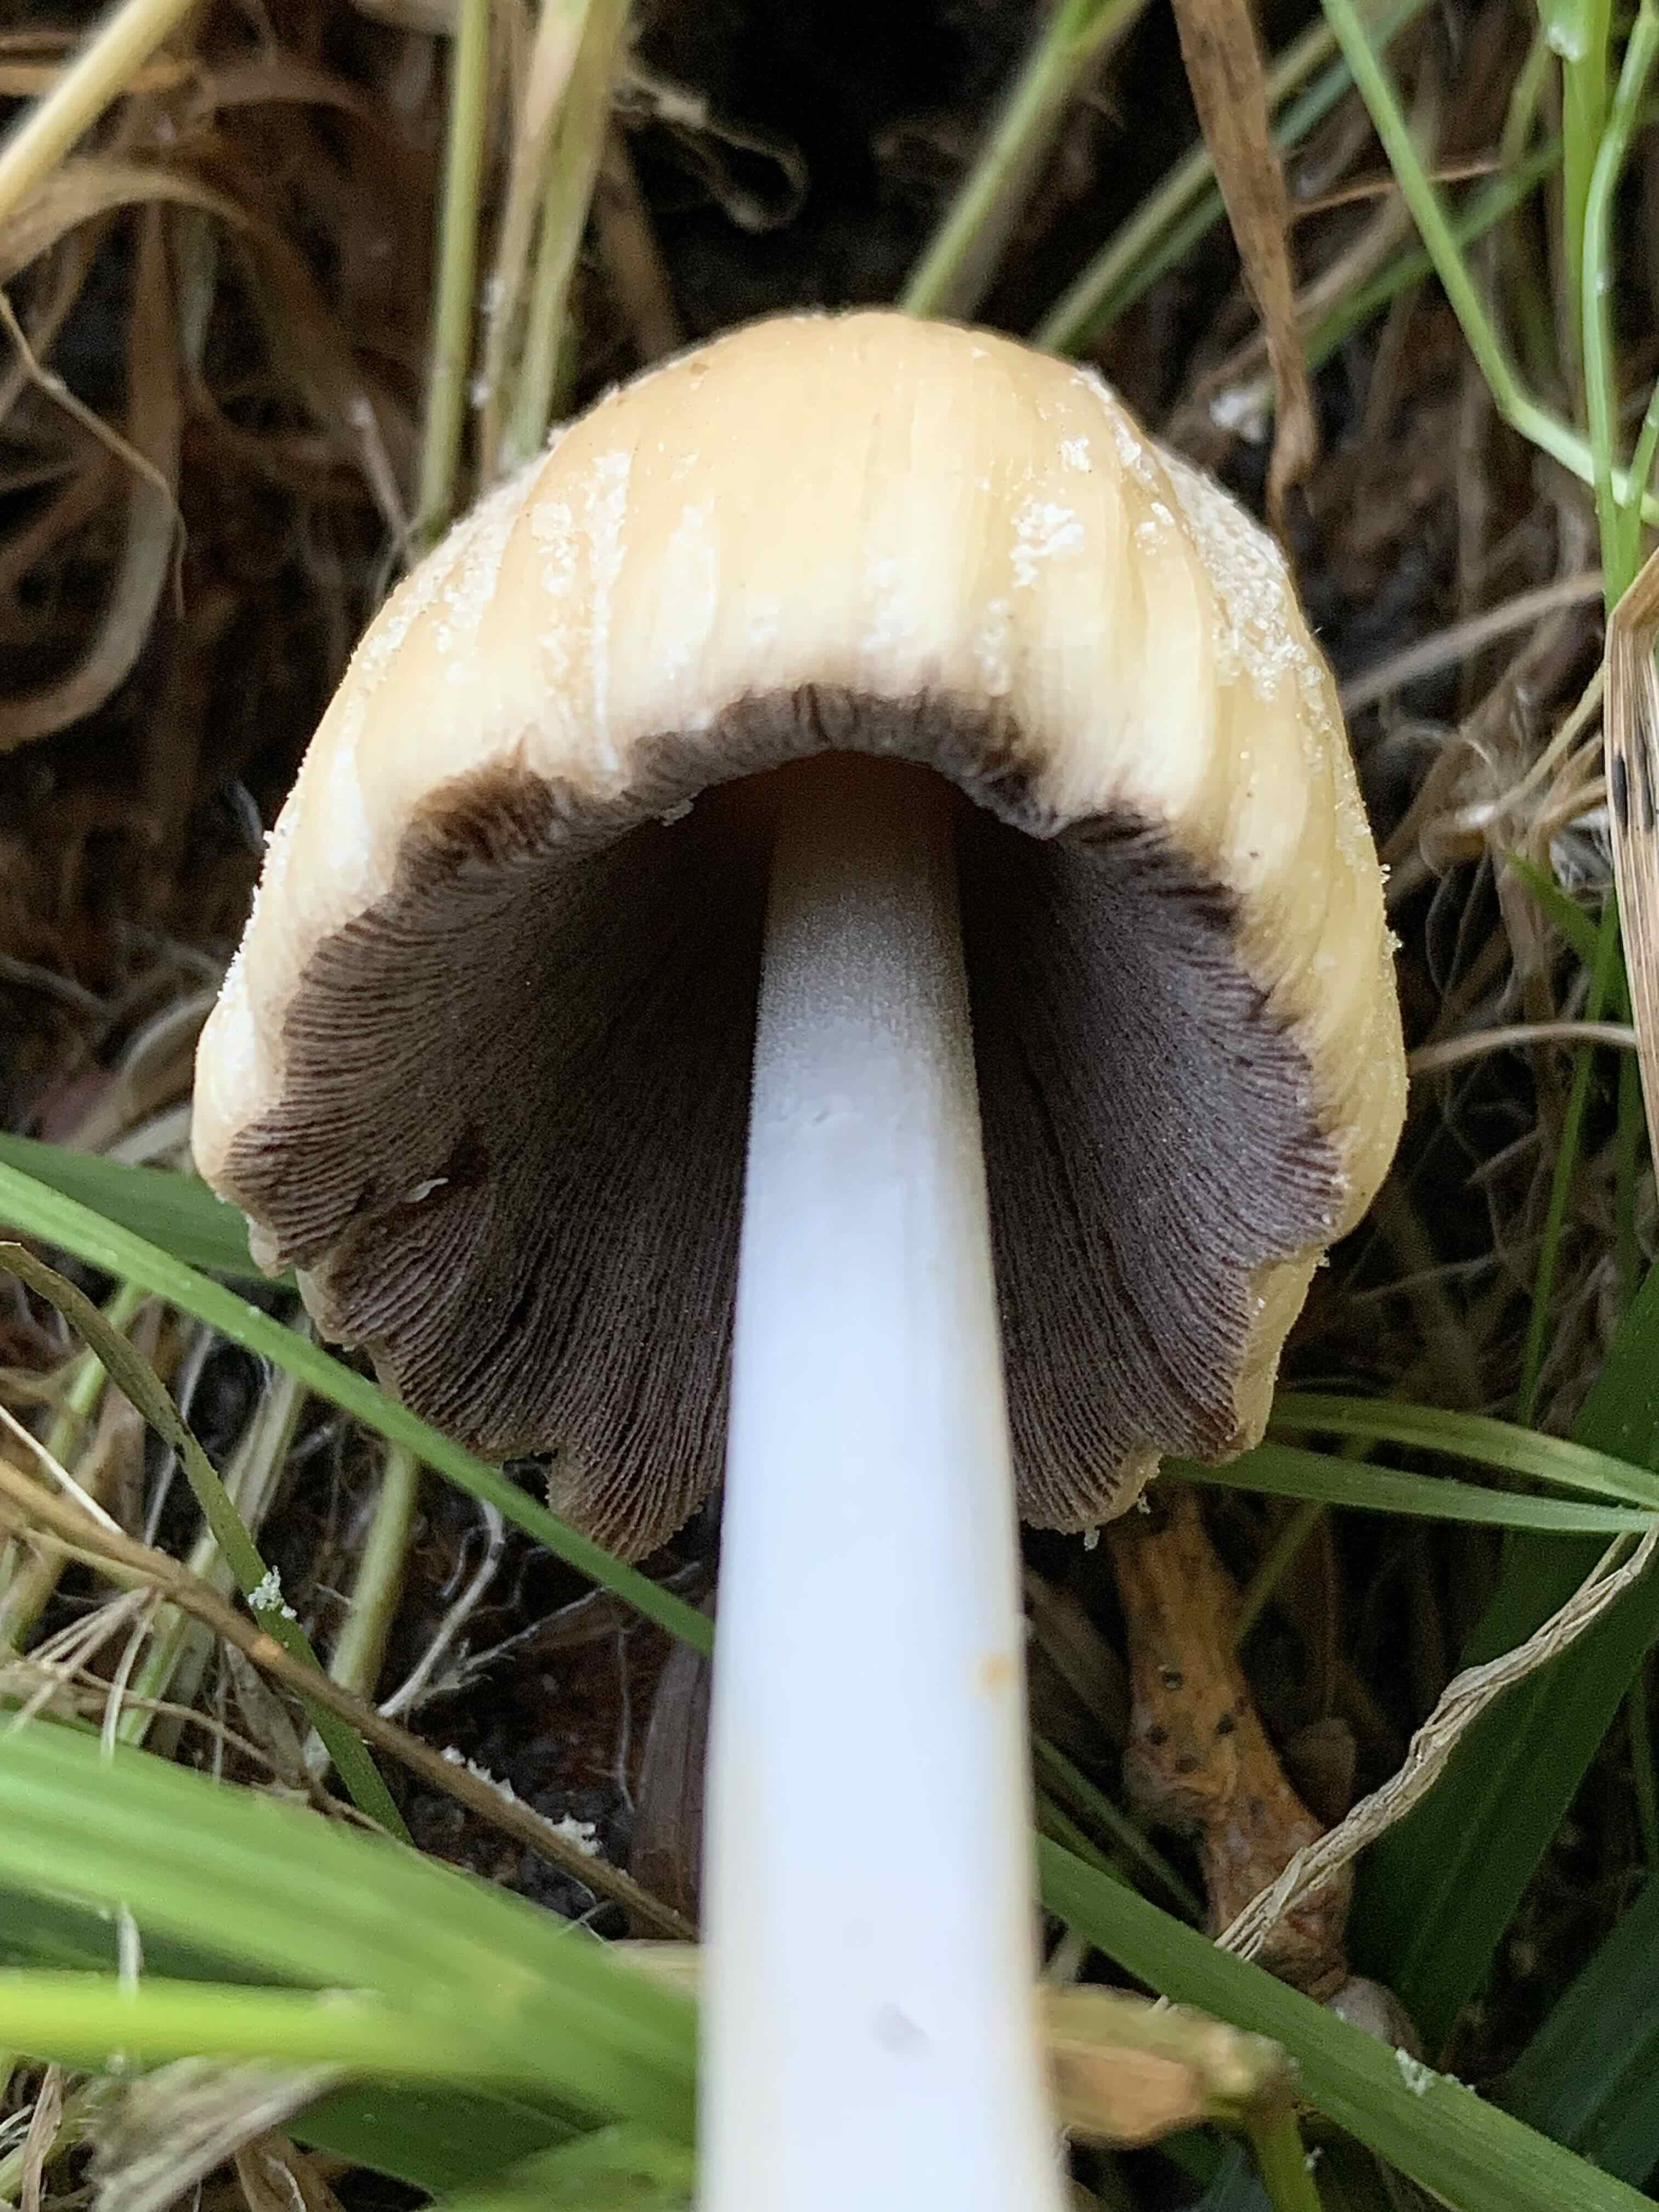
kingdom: Fungi
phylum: Basidiomycota
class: Agaricomycetes
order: Agaricales
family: Psathyrellaceae
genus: Coprinellus
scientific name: Coprinellus micaceus
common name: glimmer-blækhat
